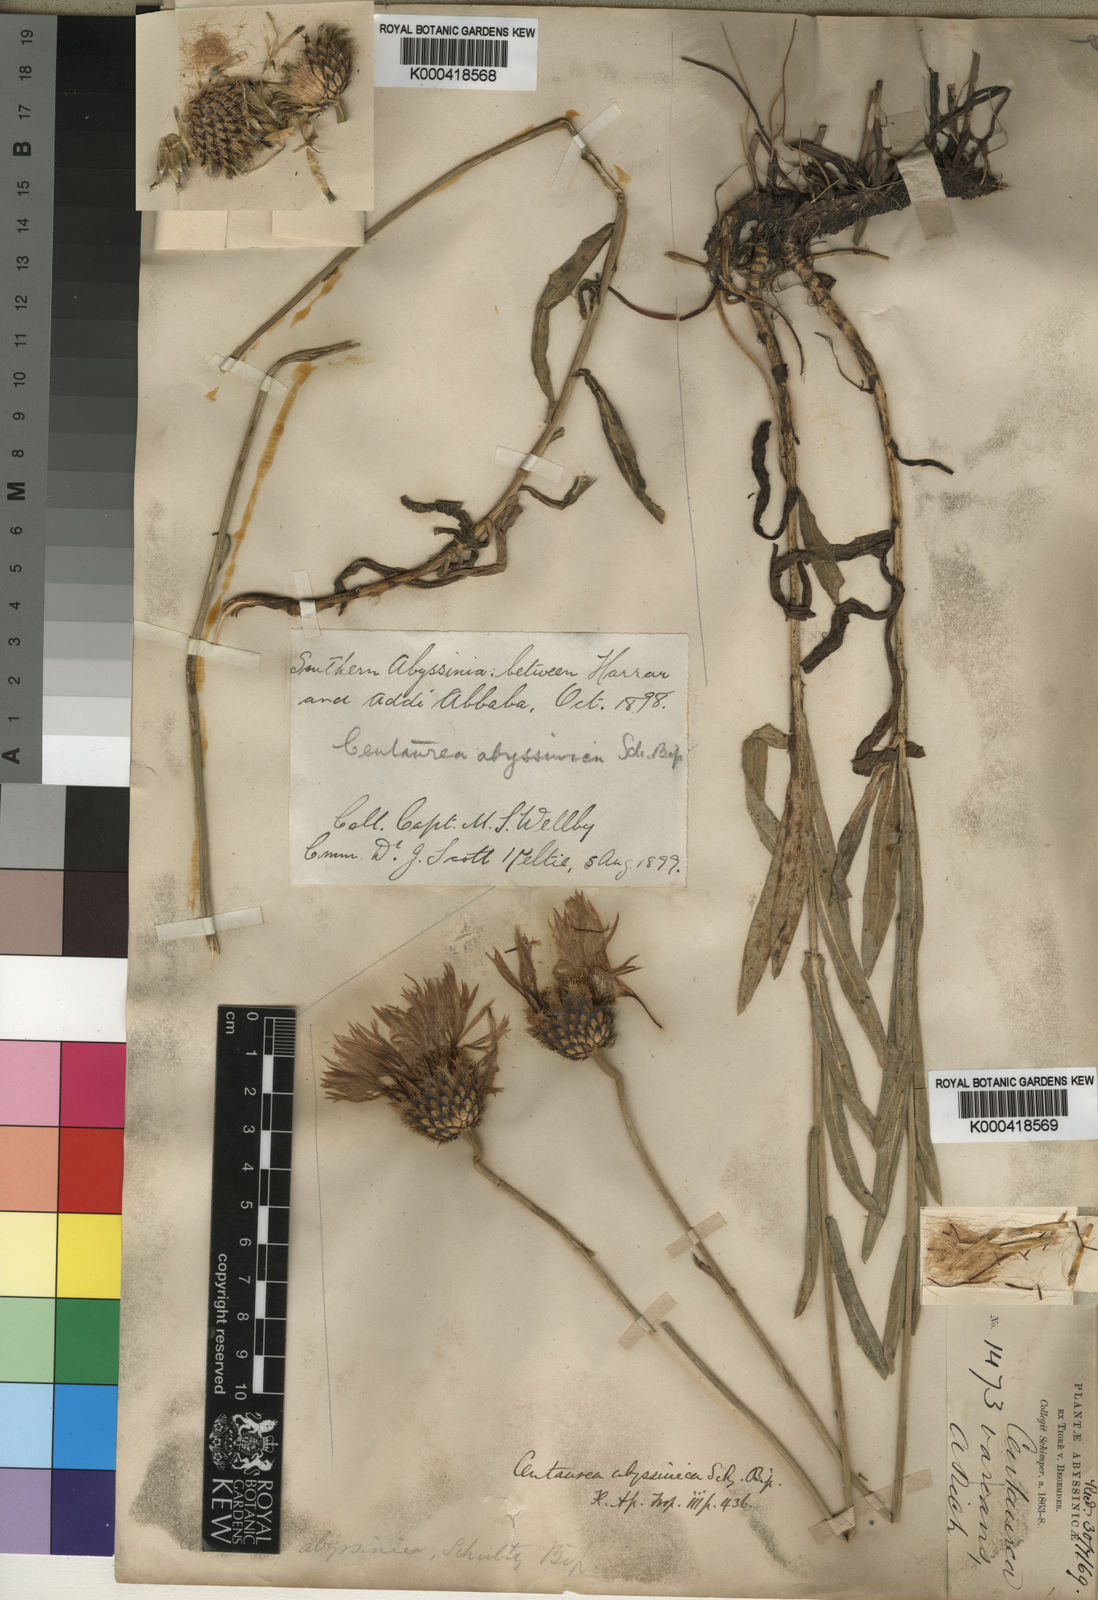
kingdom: Plantae
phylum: Tracheophyta
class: Magnoliopsida
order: Asterales
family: Asteraceae
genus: Plectocephalus
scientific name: Plectocephalus
